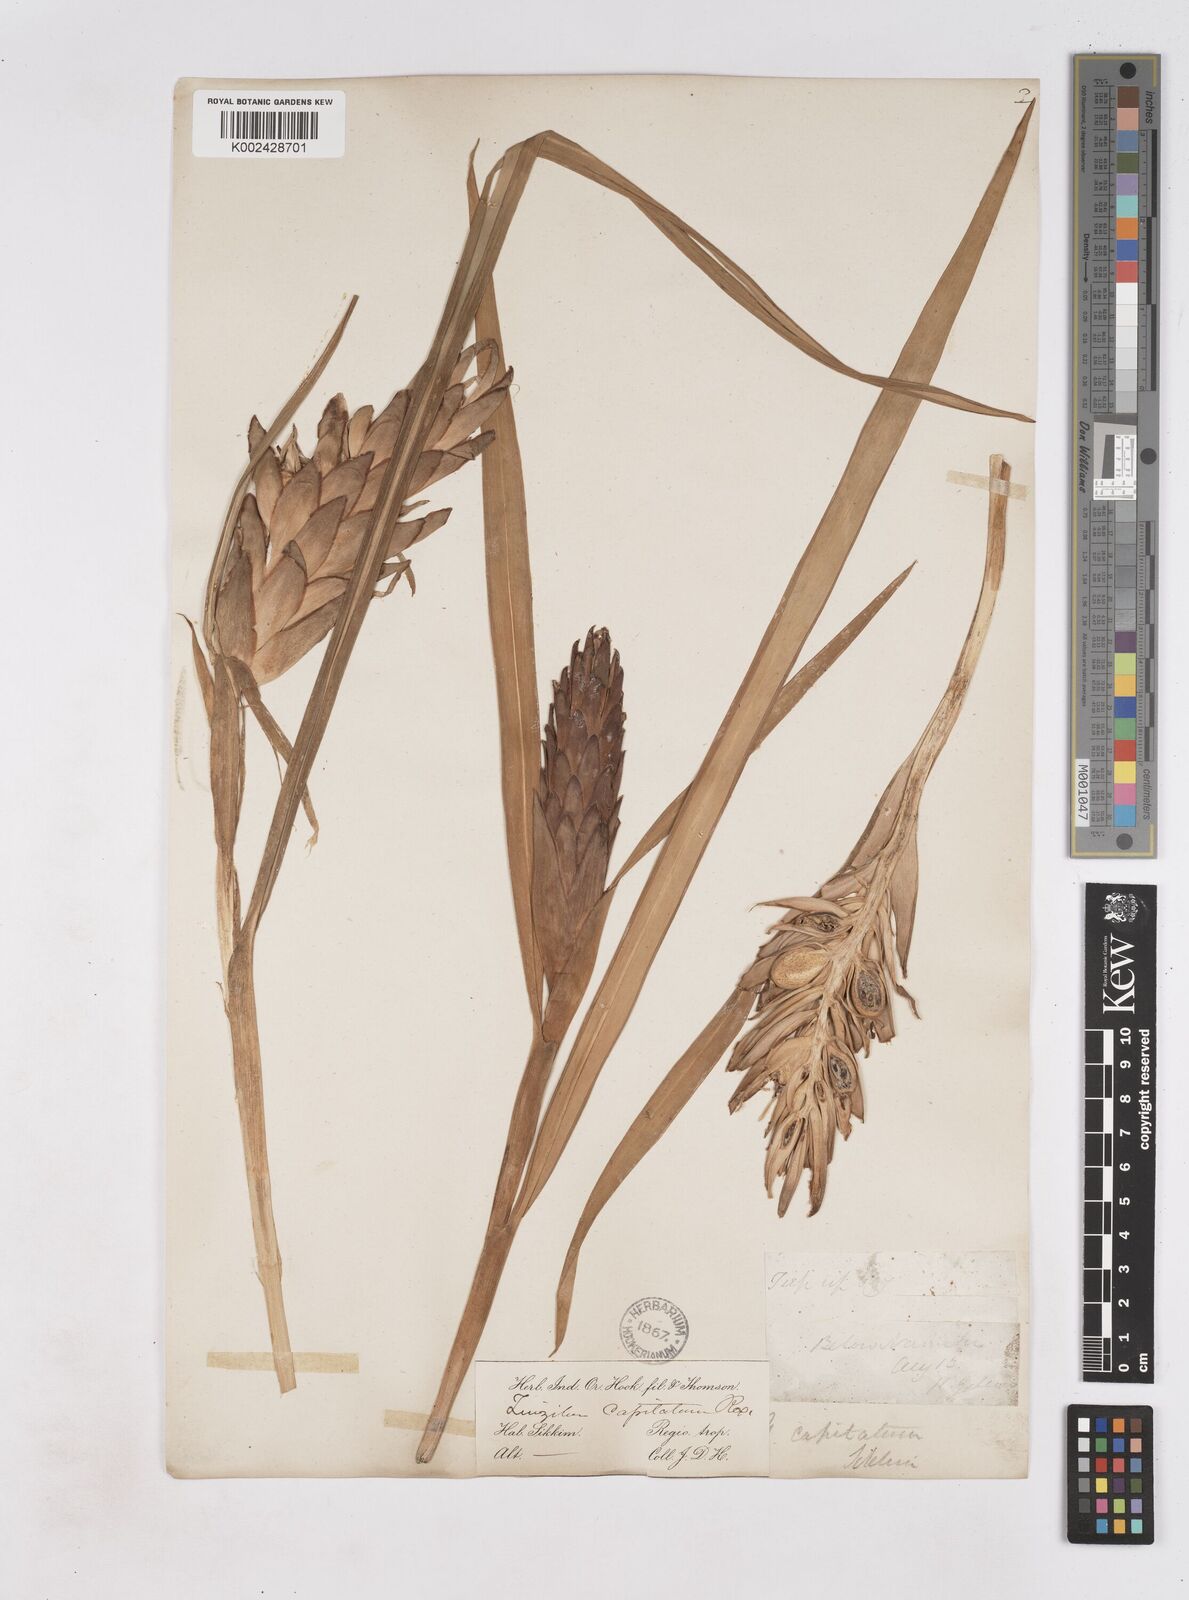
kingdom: Plantae
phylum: Tracheophyta
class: Liliopsida
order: Zingiberales
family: Zingiberaceae
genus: Zingiber
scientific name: Zingiber capitatum
